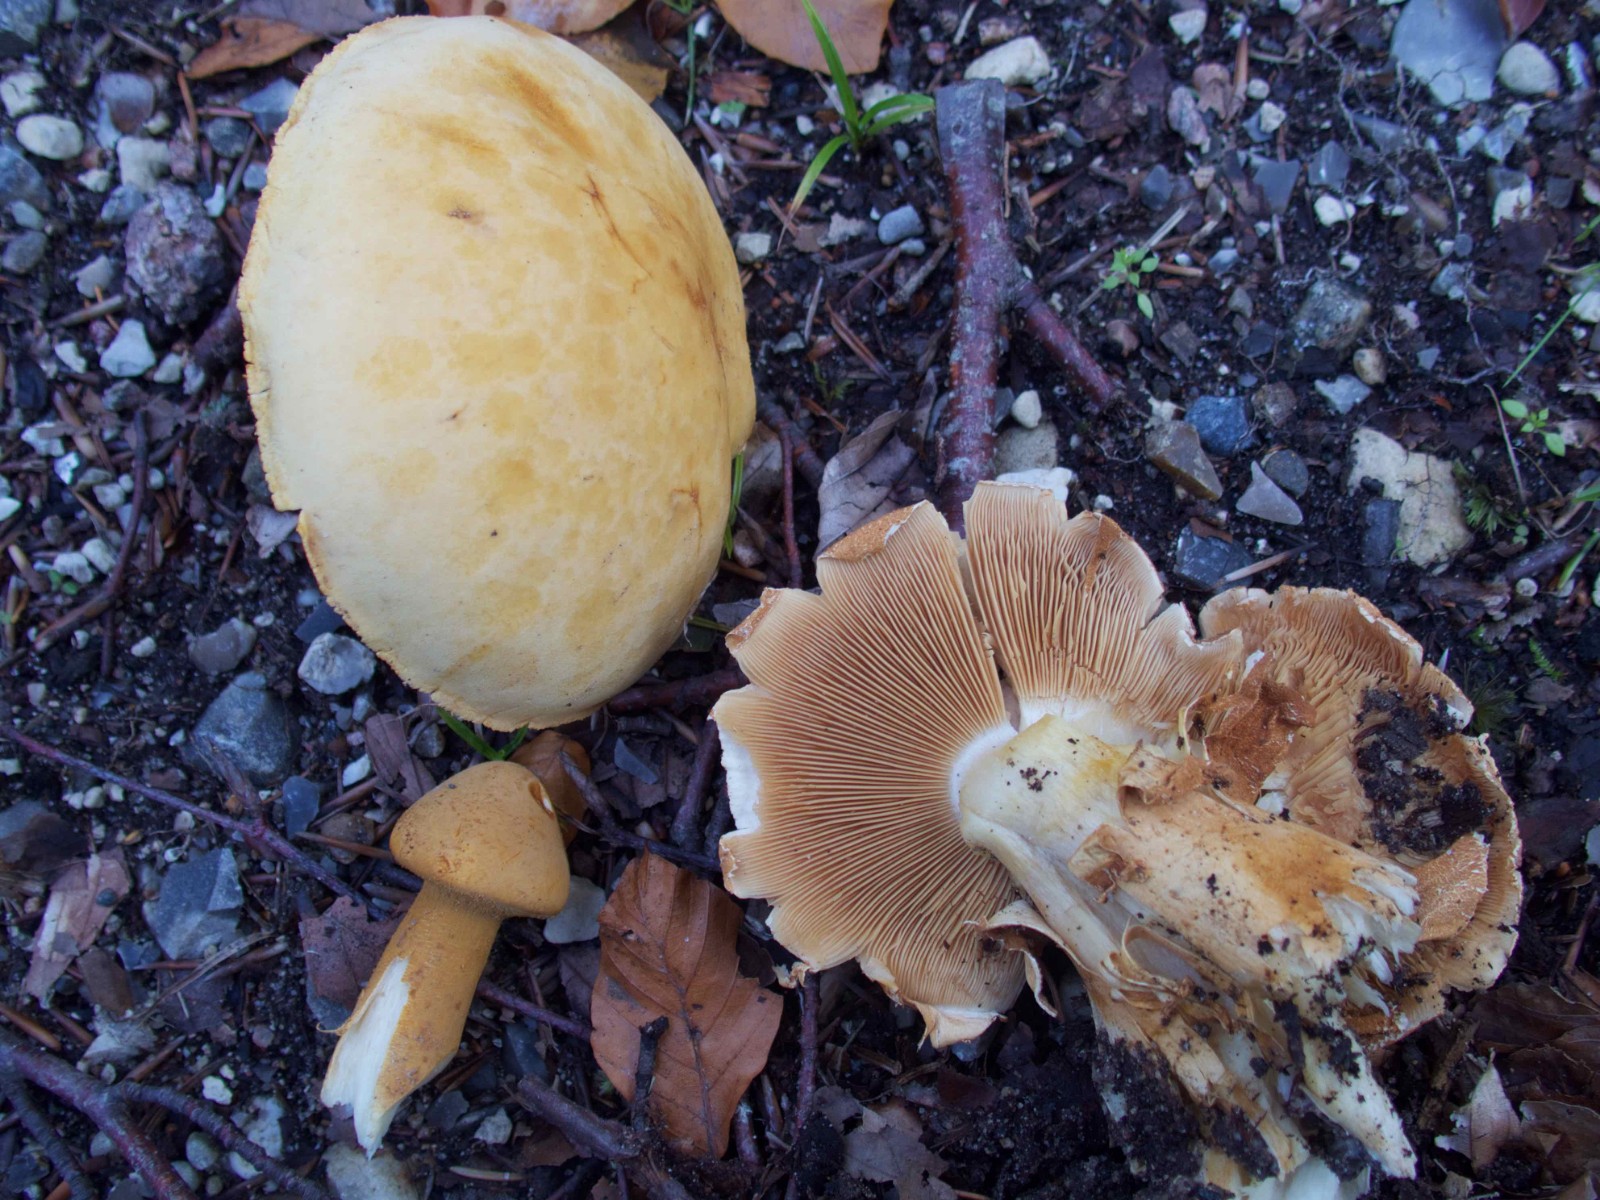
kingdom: Fungi
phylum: Basidiomycota
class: Agaricomycetes
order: Agaricales
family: Tricholomataceae
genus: Phaeolepiota
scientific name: Phaeolepiota aurea
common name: gyldenhat
